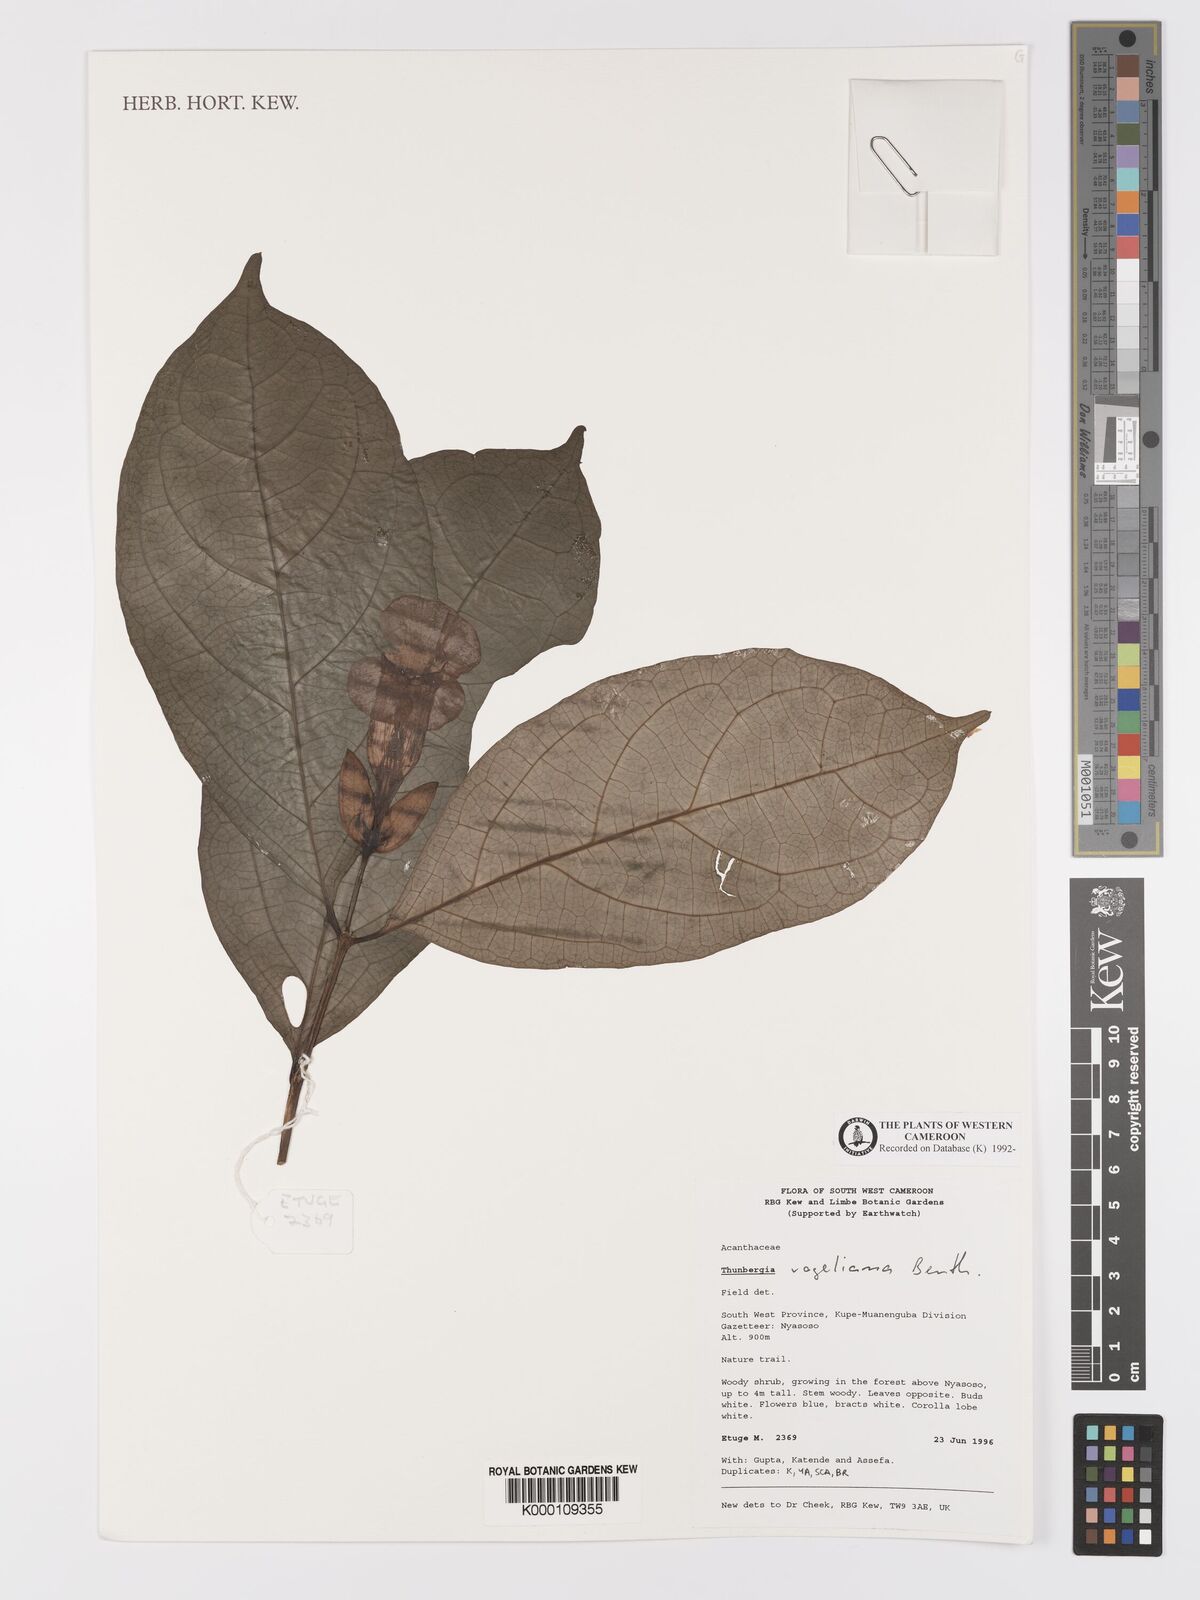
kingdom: Plantae
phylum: Tracheophyta
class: Magnoliopsida
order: Lamiales
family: Acanthaceae
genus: Thunbergia
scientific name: Thunbergia vogeliana
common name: Acanthaceae
